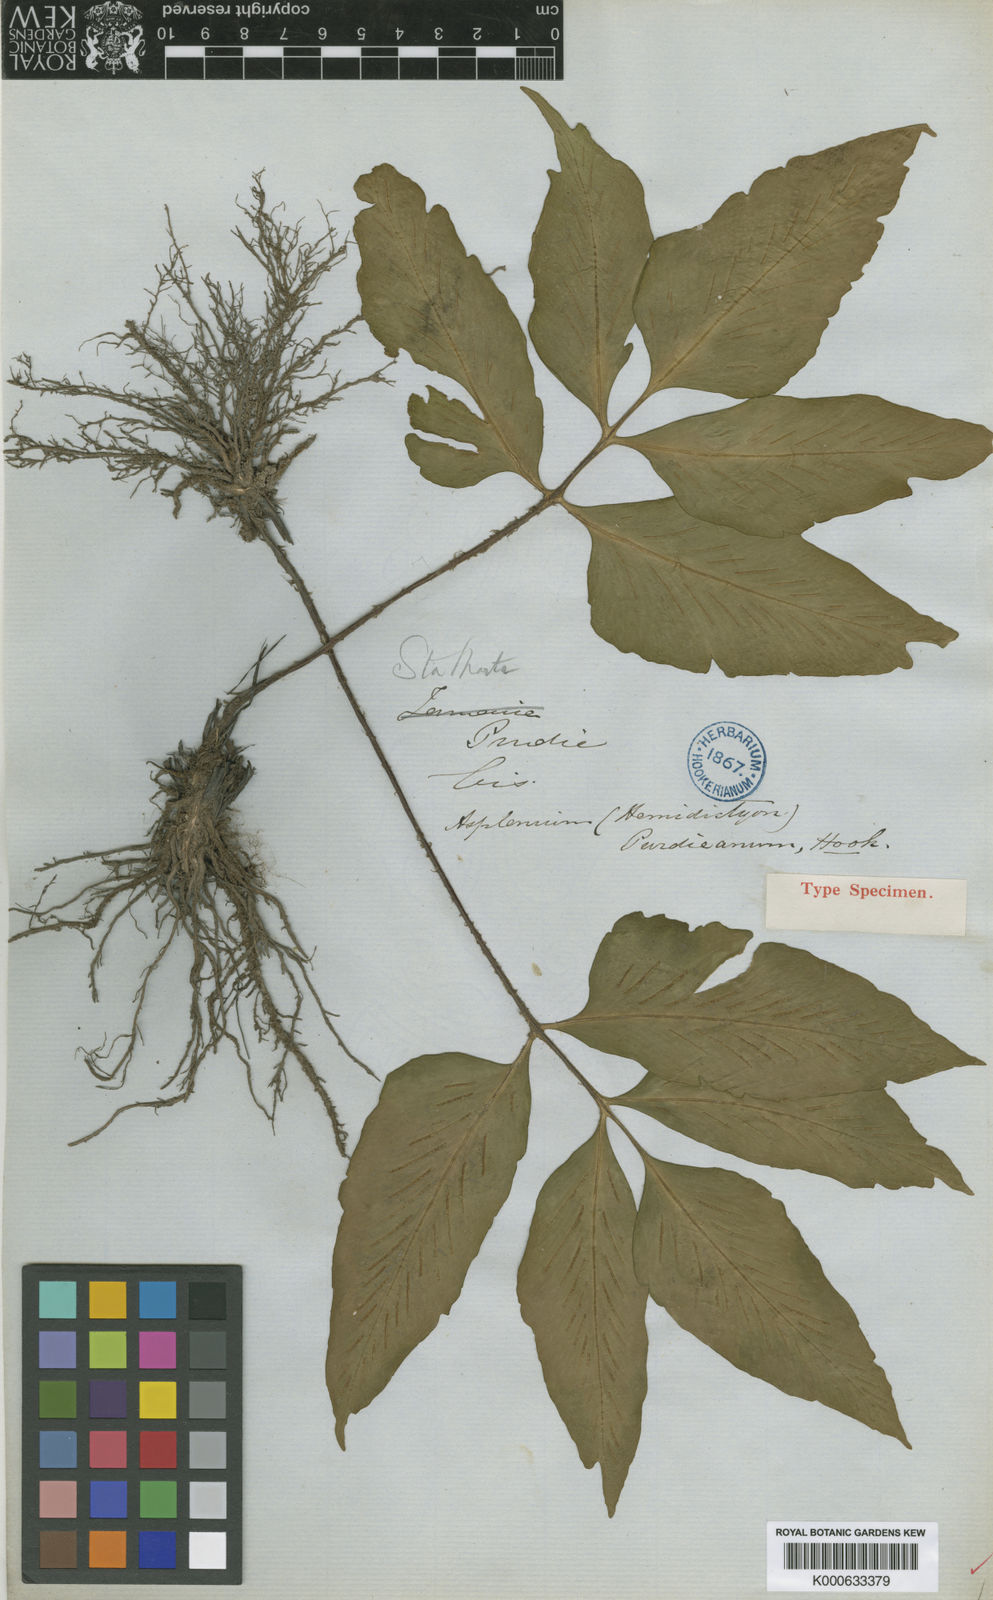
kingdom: Plantae
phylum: Tracheophyta
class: Polypodiopsida
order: Polypodiales
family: Aspleniaceae
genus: Asplenium
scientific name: Asplenium purdieanum
